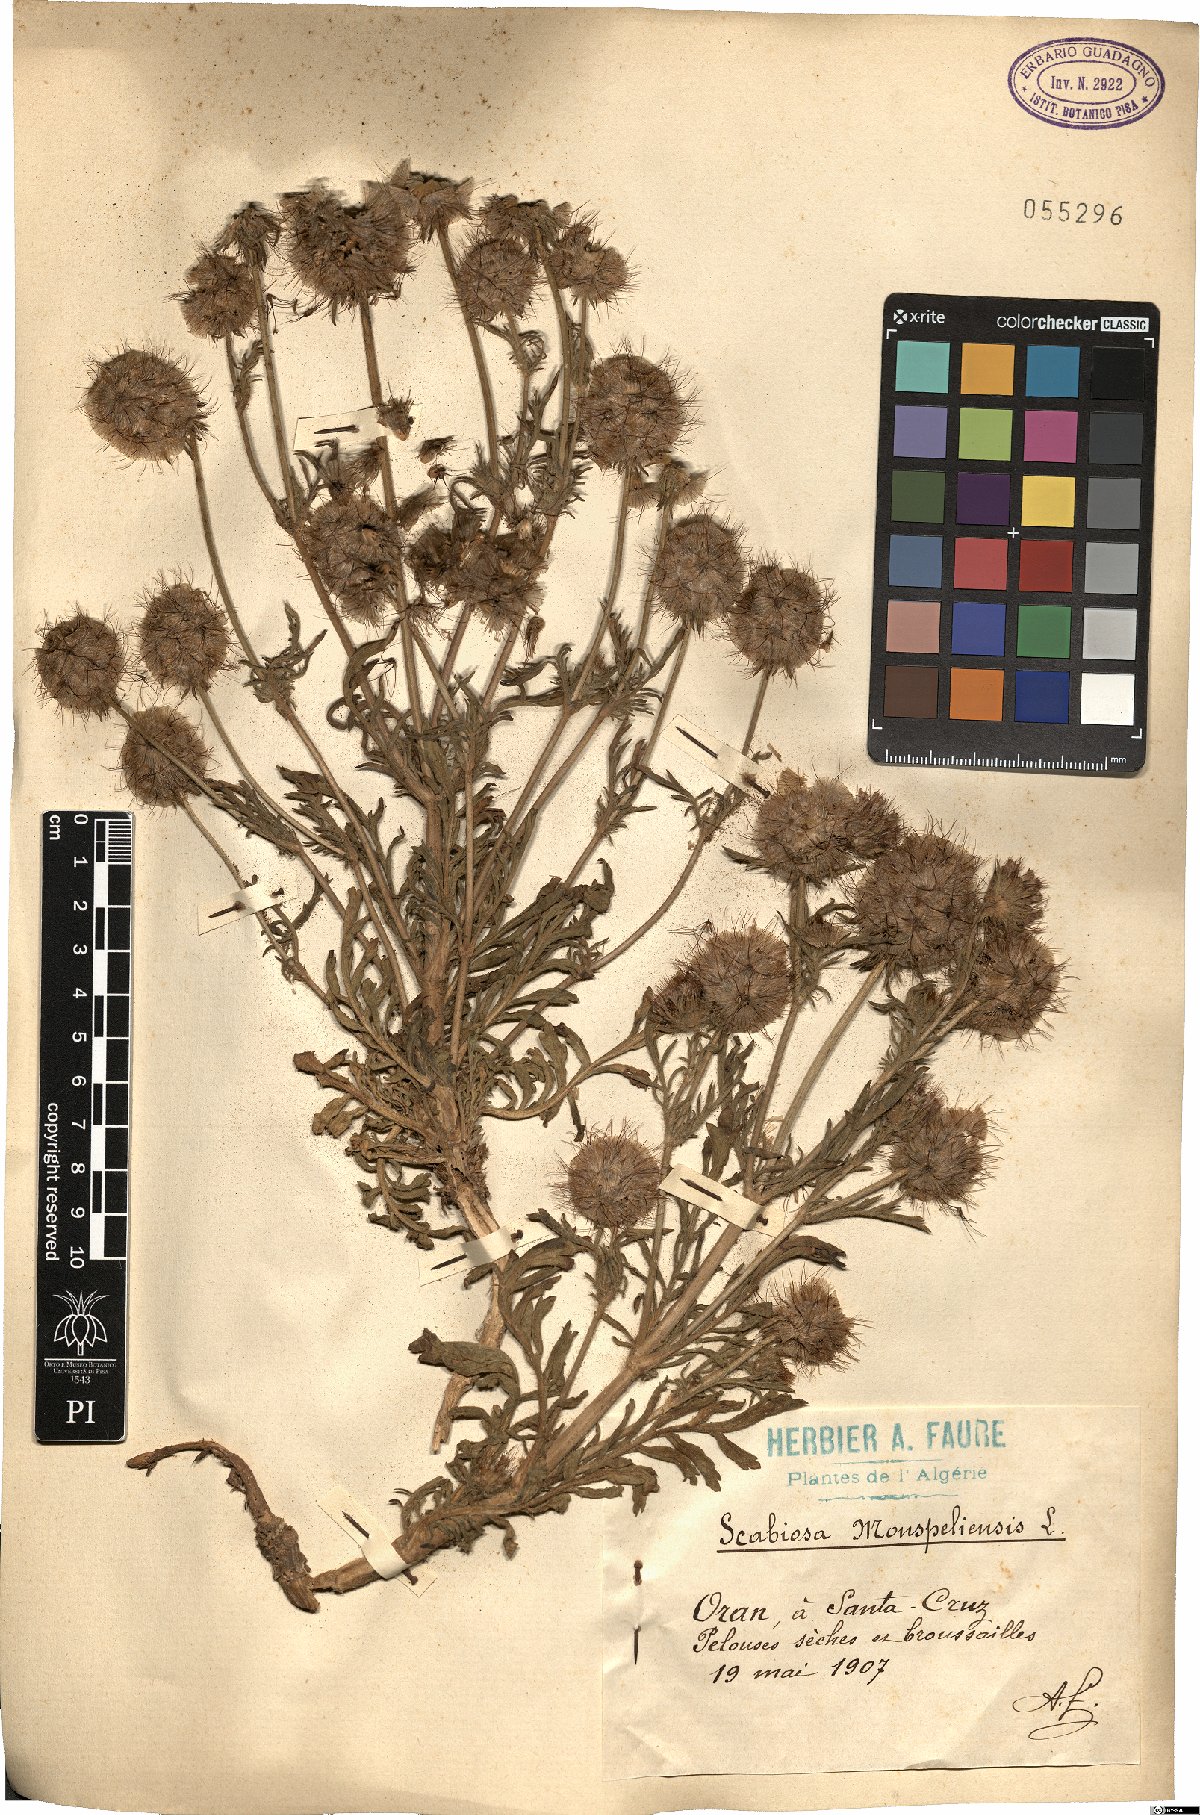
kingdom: Plantae
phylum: Tracheophyta
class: Magnoliopsida
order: Dipsacales
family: Caprifoliaceae
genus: Lomelosia
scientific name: Lomelosia stellata
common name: Teasel
